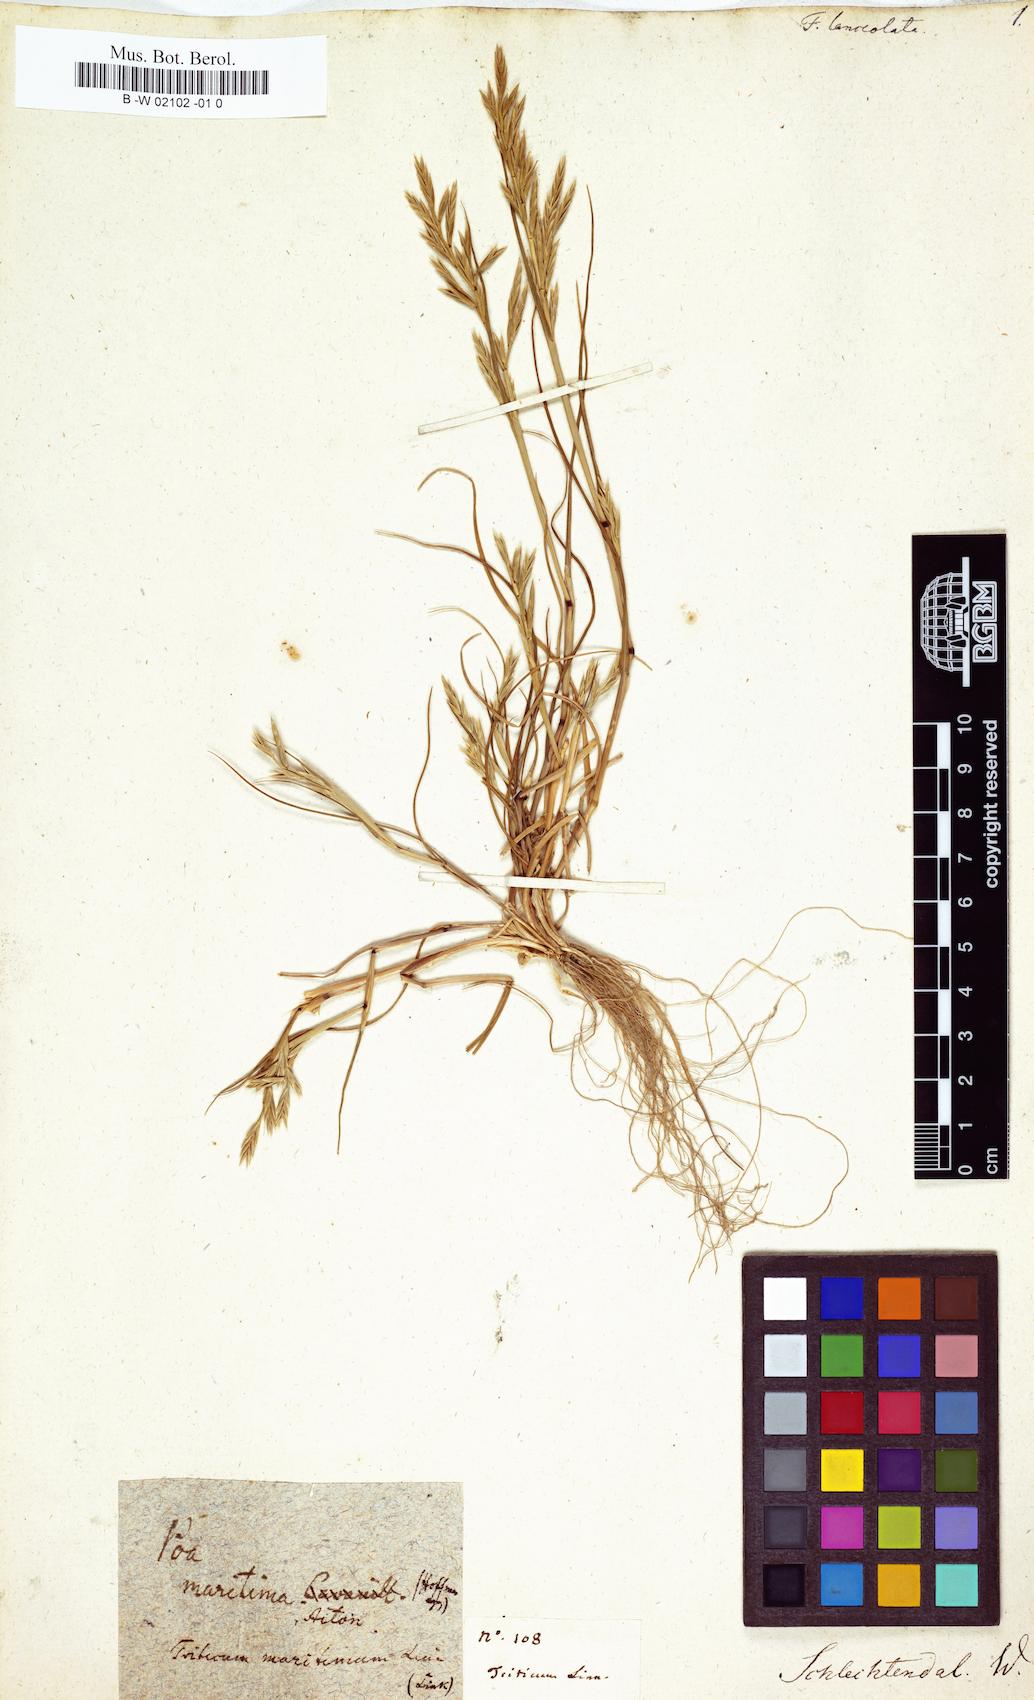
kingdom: Plantae
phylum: Tracheophyta
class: Liliopsida
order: Poales
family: Poaceae
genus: Cutandia
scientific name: Cutandia maritima
